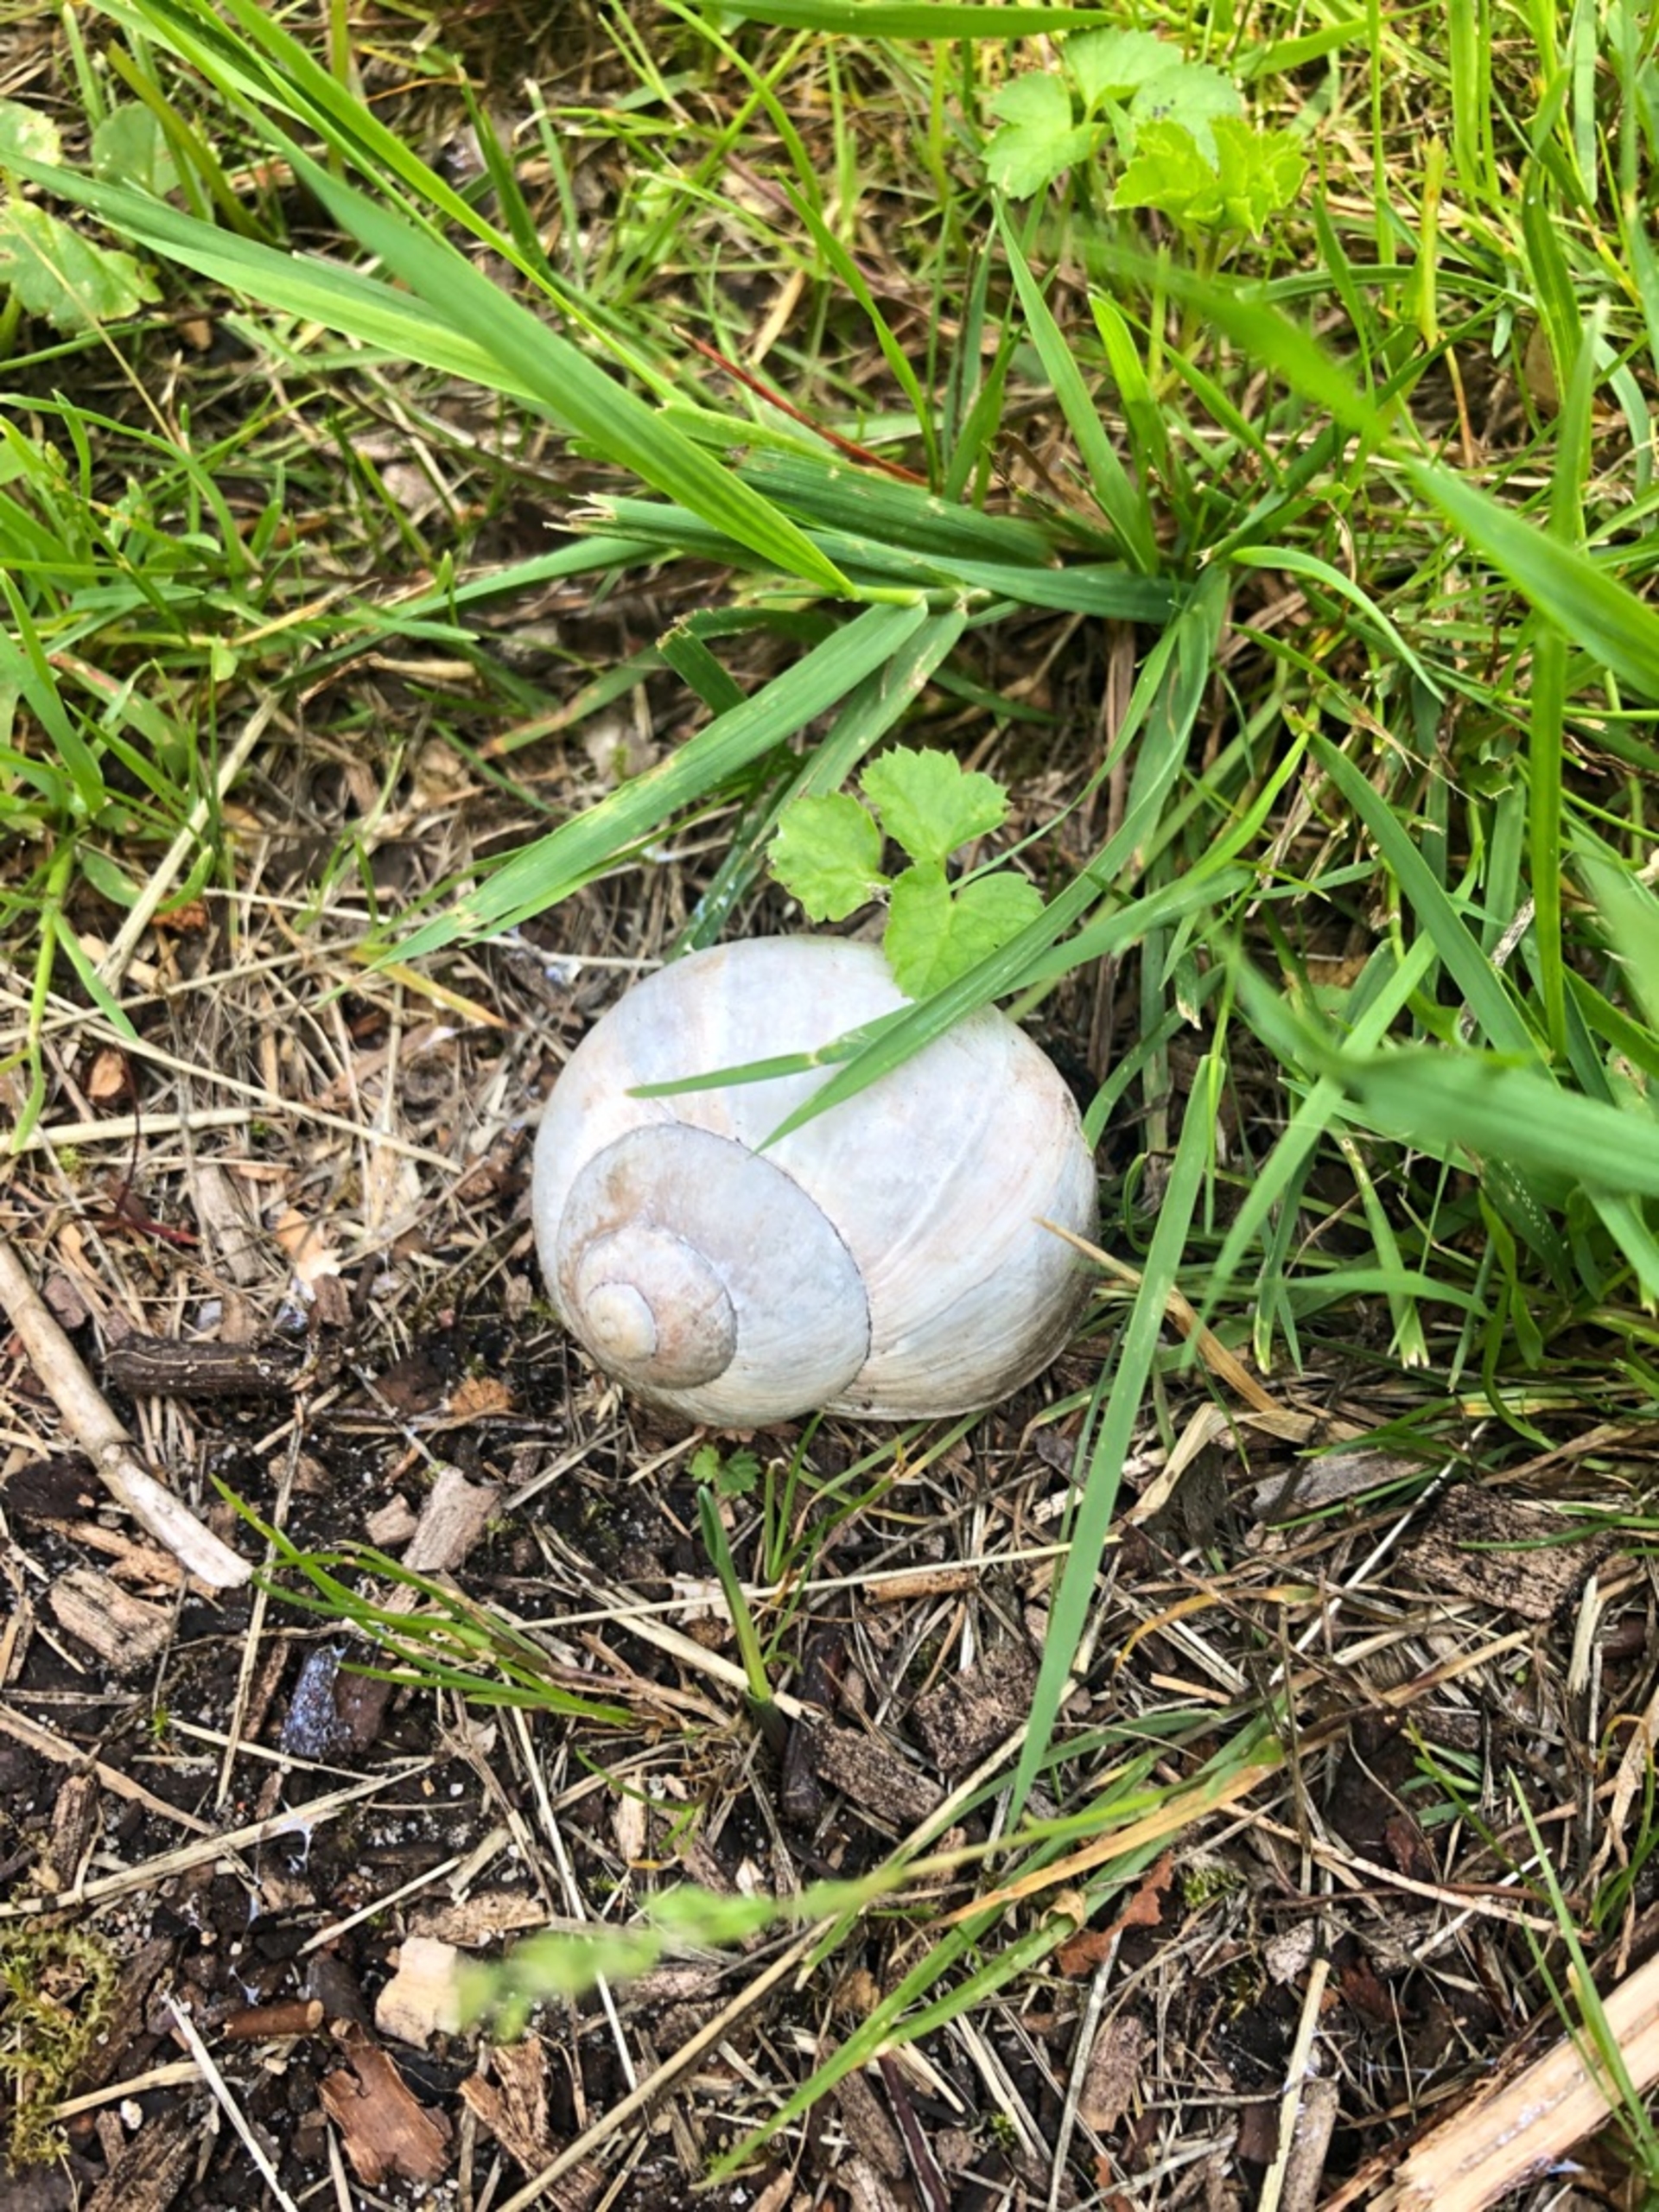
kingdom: Animalia
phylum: Mollusca
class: Gastropoda
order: Stylommatophora
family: Helicidae
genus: Helix
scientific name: Helix pomatia
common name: Vinbjergsnegl
